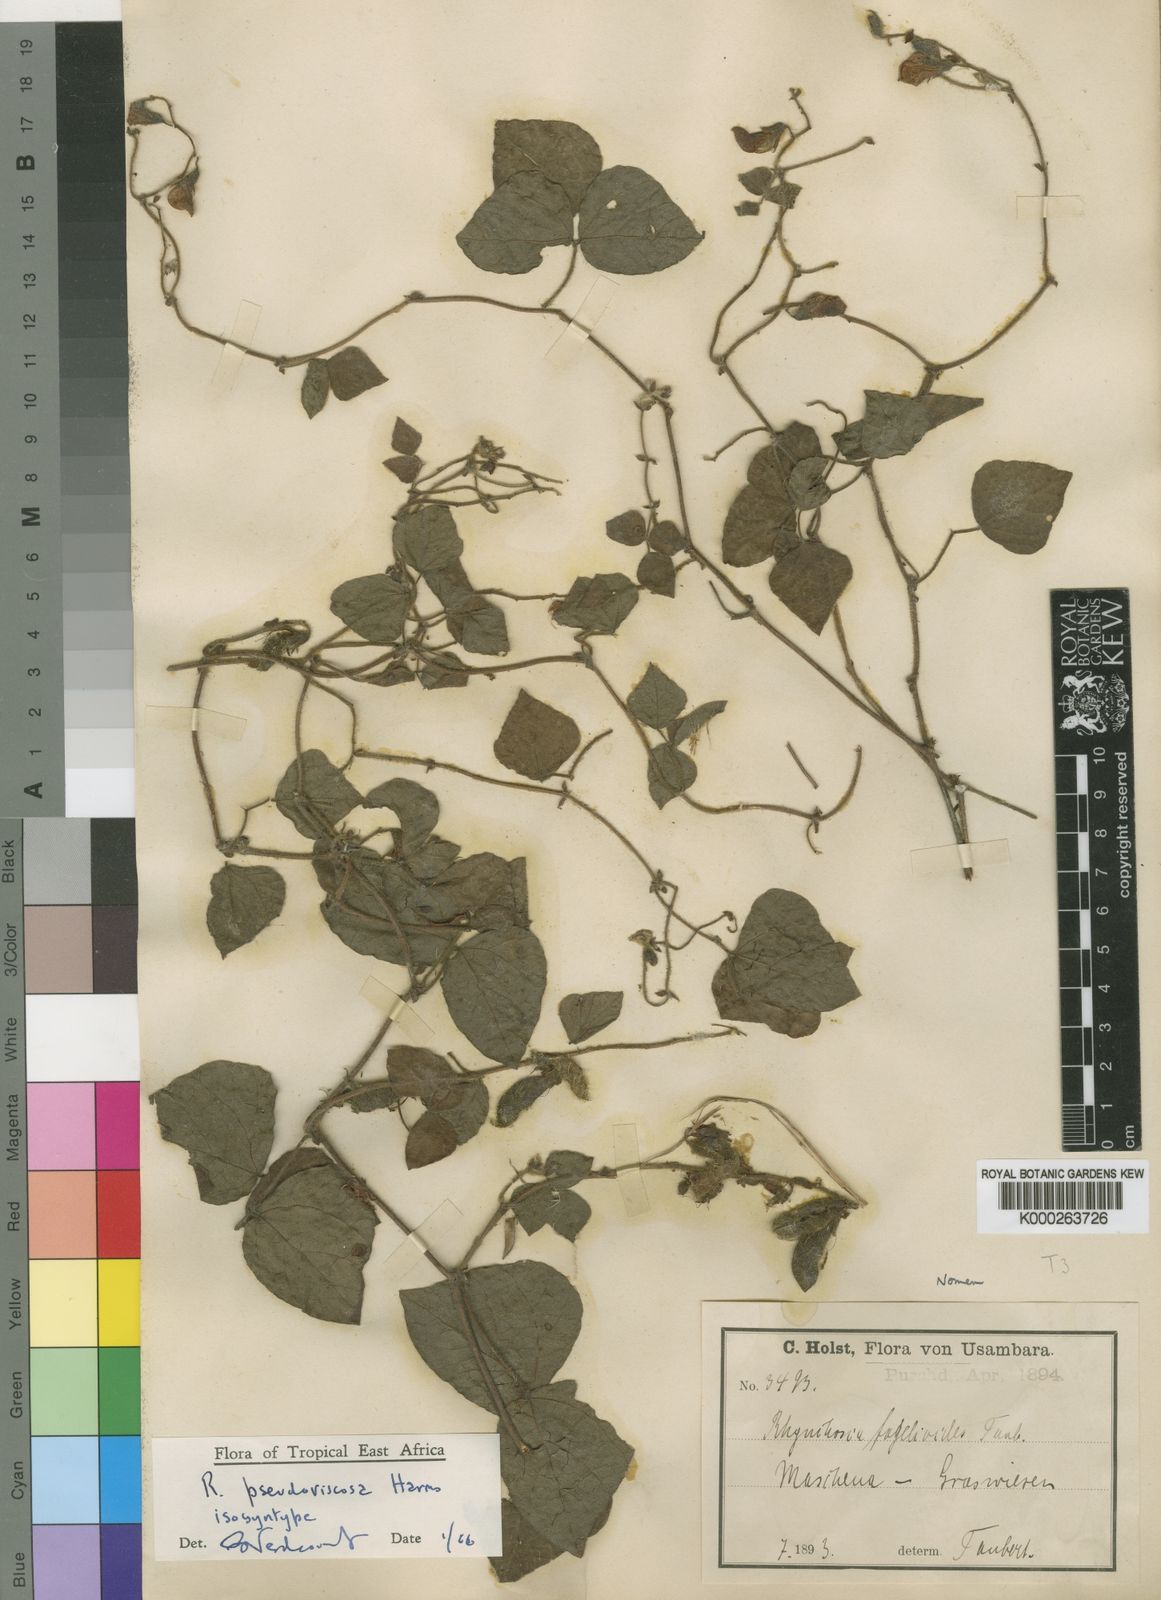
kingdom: Plantae
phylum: Tracheophyta
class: Magnoliopsida
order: Fabales
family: Fabaceae
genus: Rhynchosia
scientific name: Rhynchosia pseudoviscosa
